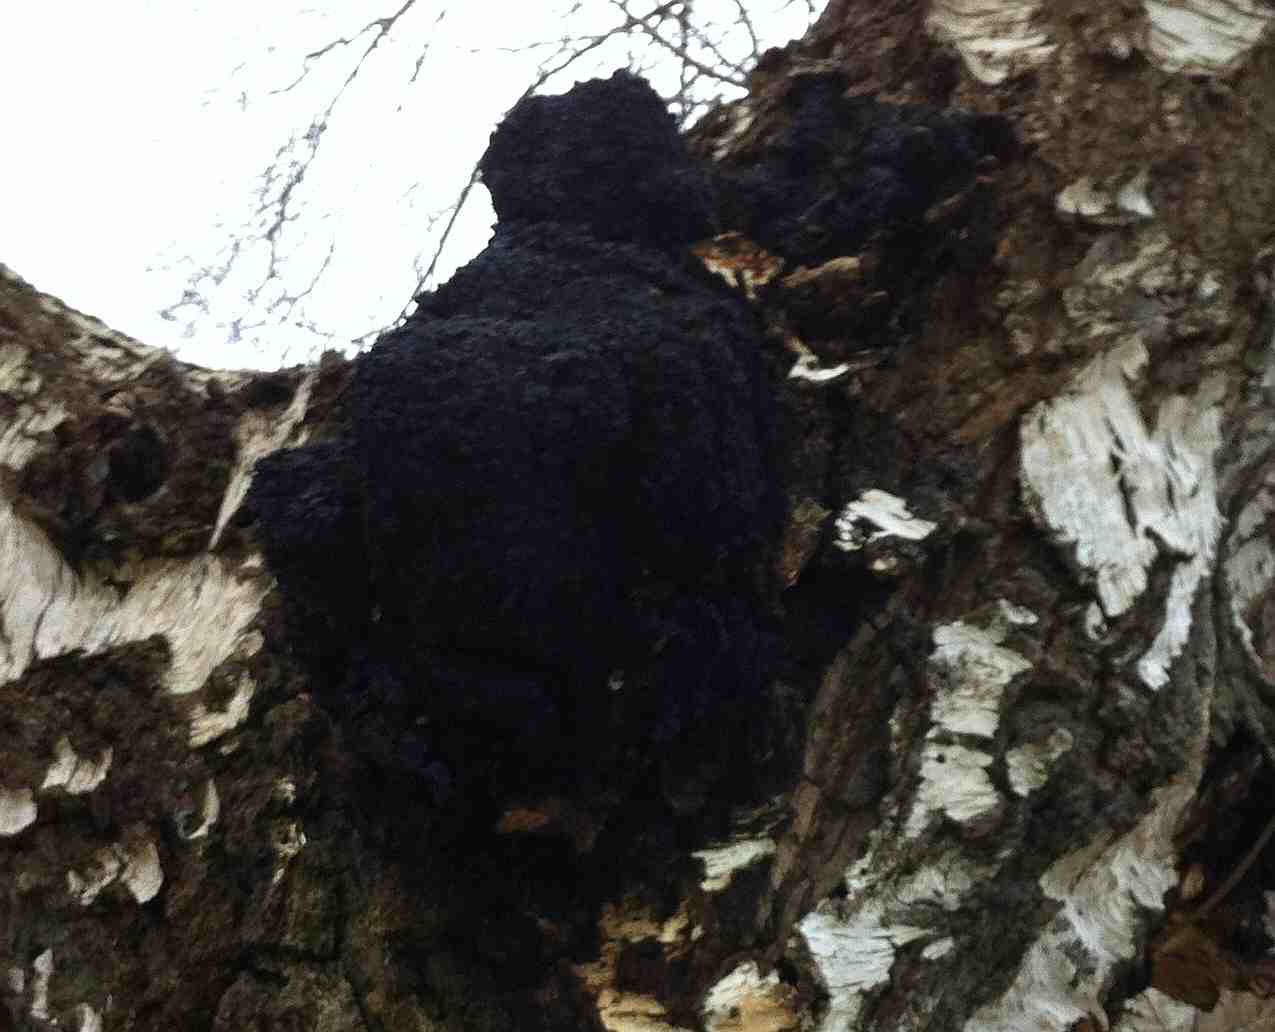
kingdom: Fungi
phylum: Basidiomycota
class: Agaricomycetes
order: Hymenochaetales
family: Hymenochaetaceae
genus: Inonotus
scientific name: Inonotus obliquus
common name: birke-spejlporesvamp
